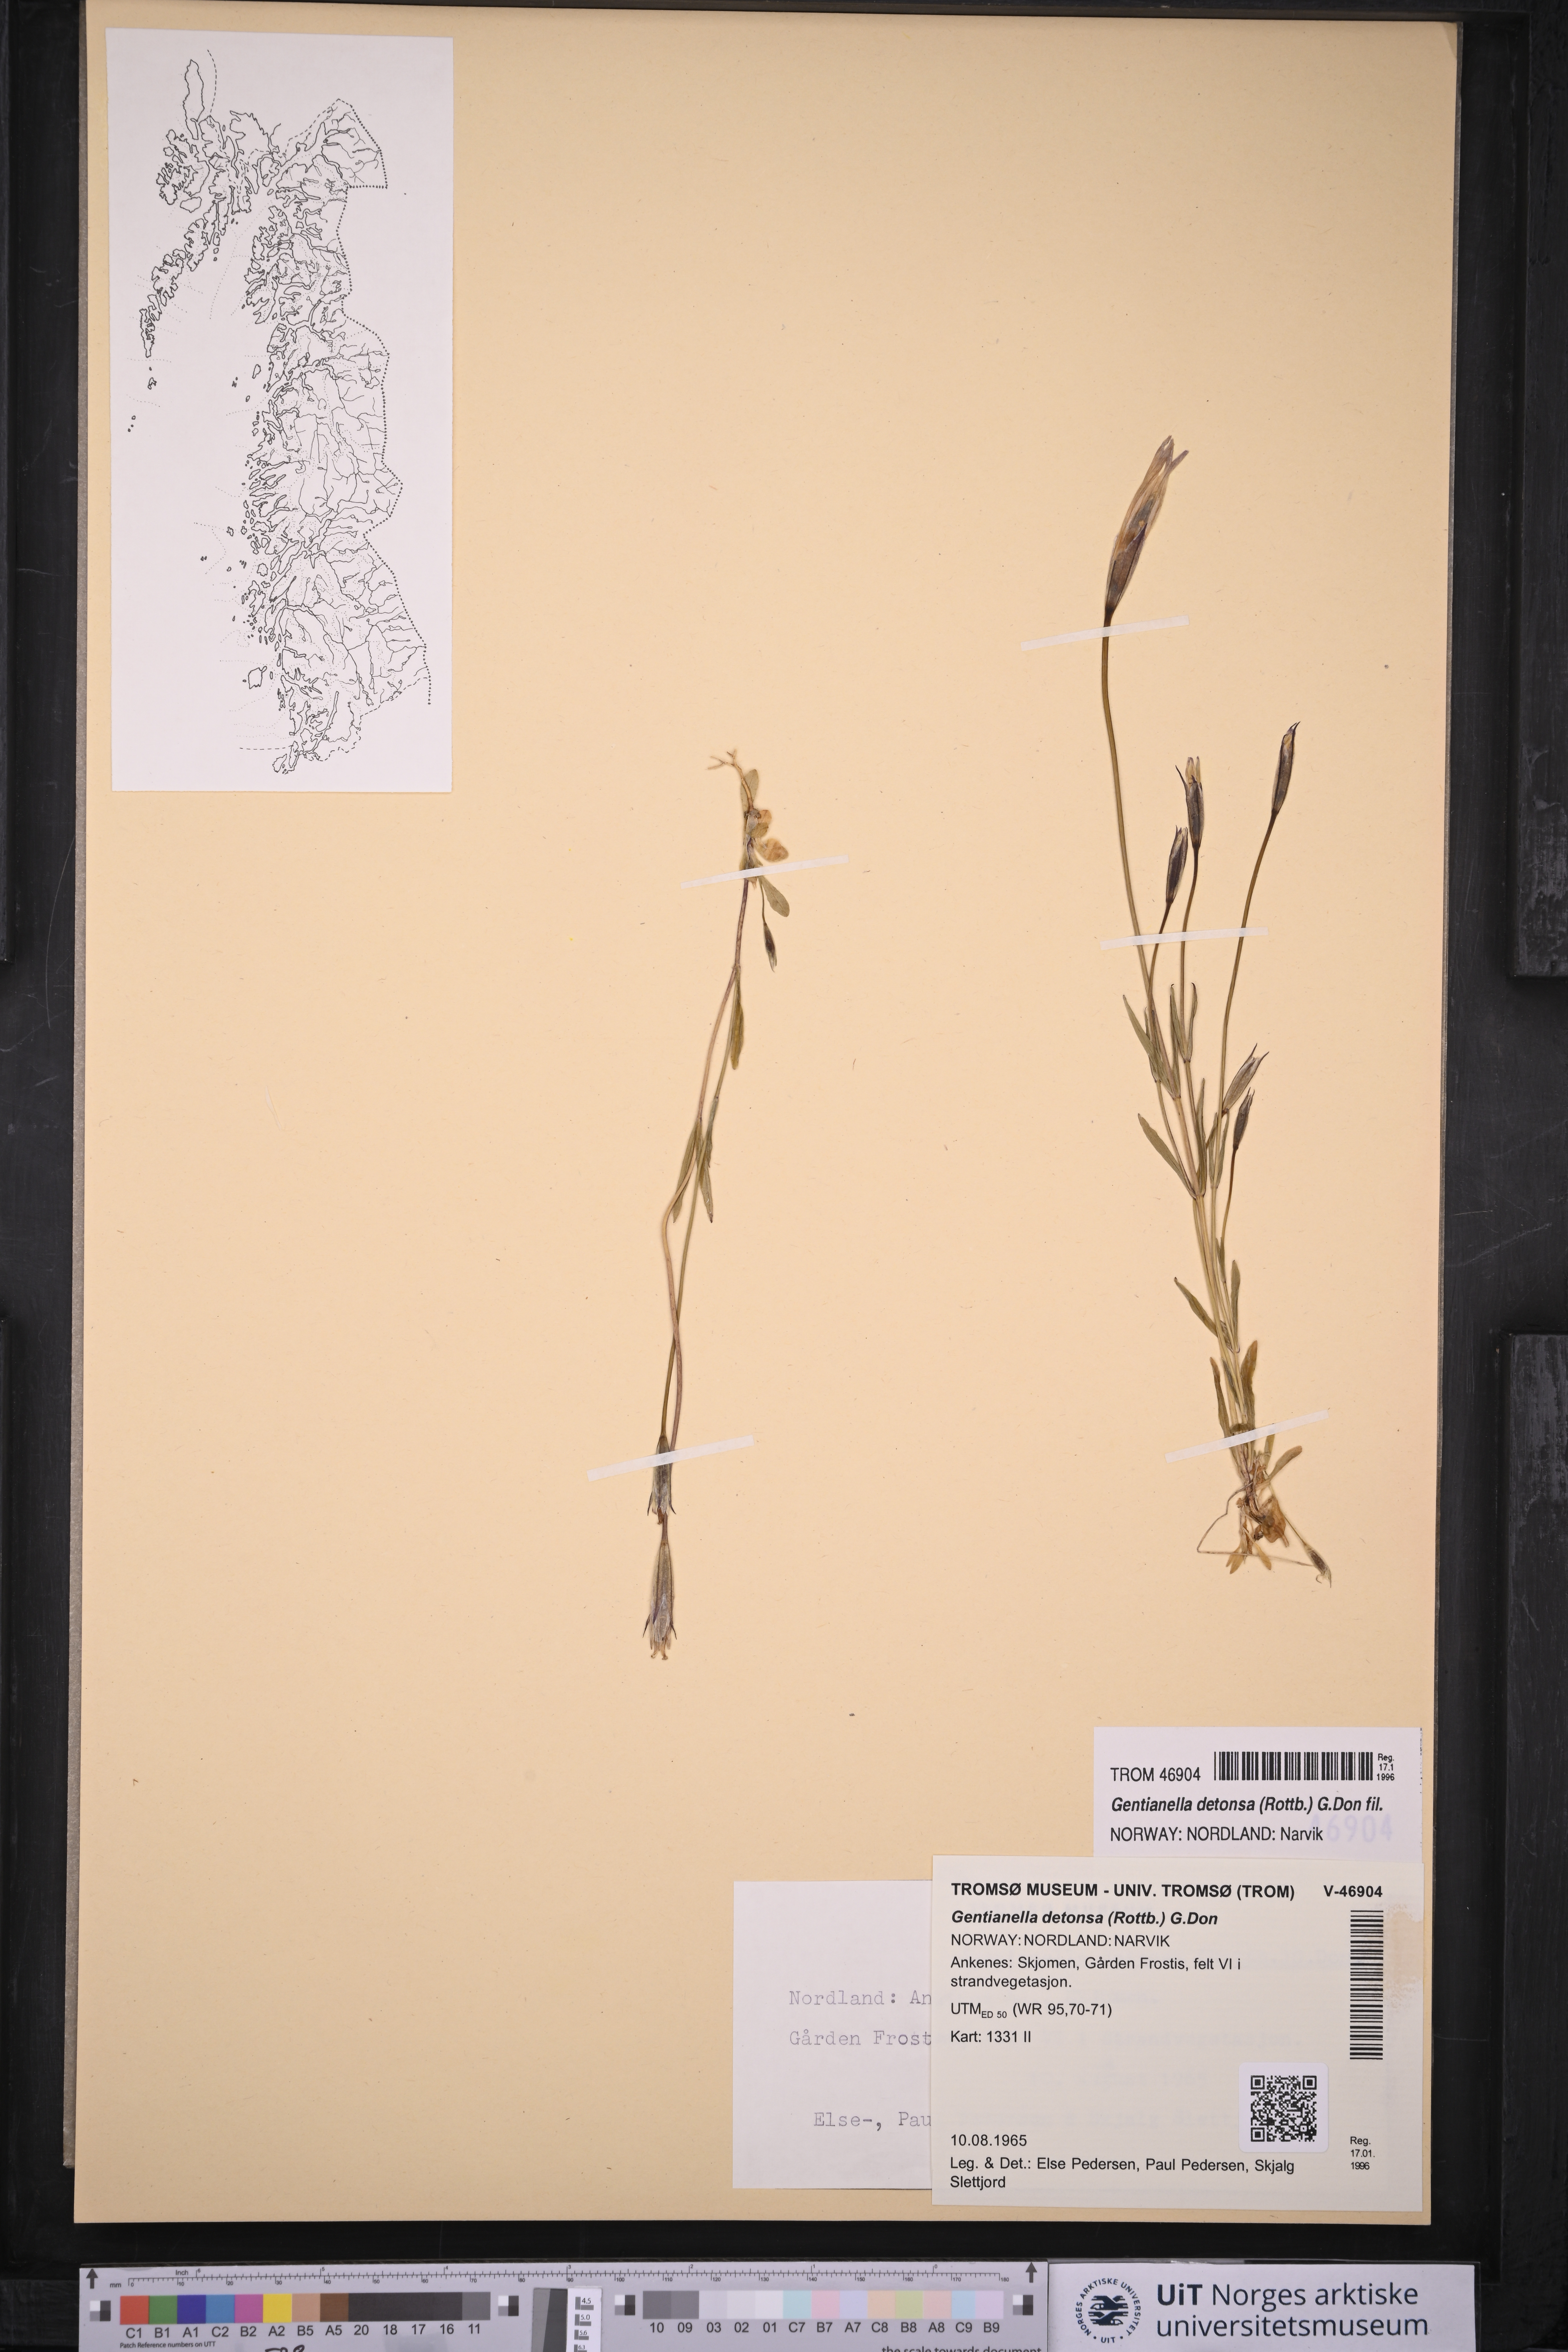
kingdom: Plantae
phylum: Tracheophyta
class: Magnoliopsida
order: Gentianales
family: Gentianaceae
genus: Gentianopsis
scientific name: Gentianopsis detonsa
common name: Fringed-gentian
